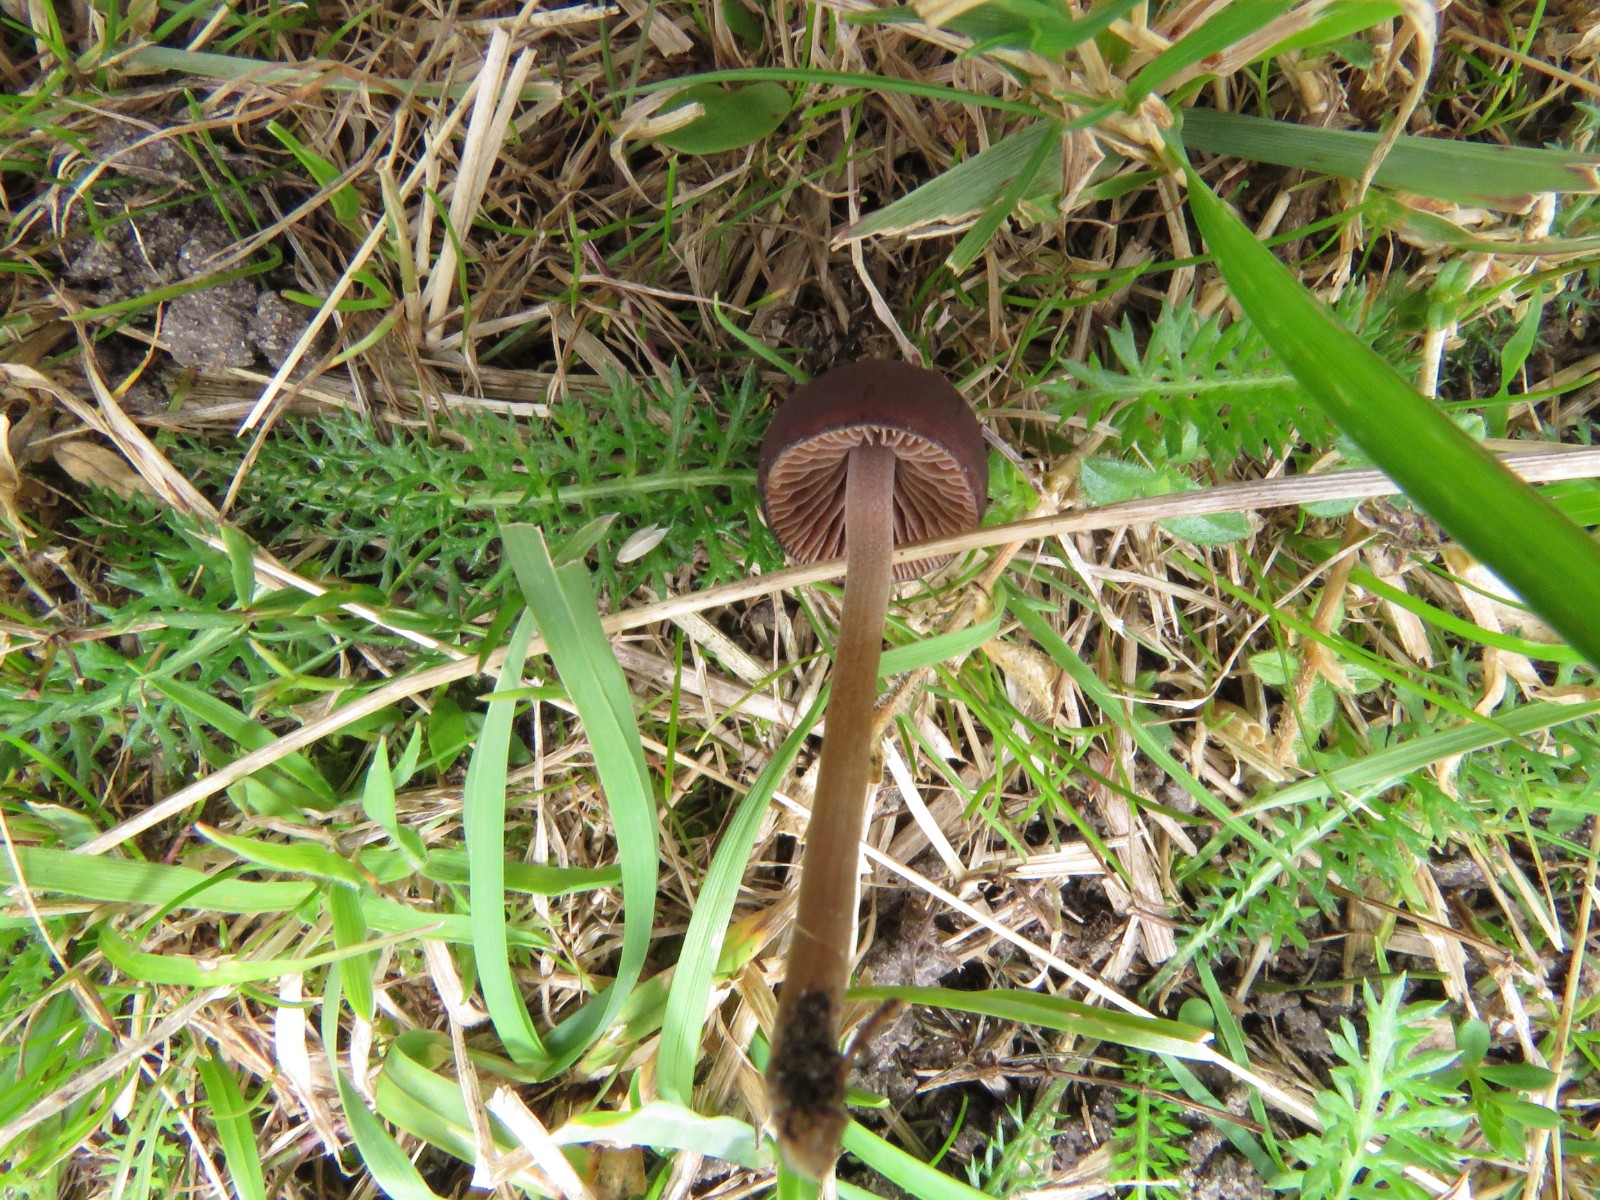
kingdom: Fungi
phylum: Basidiomycota
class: Agaricomycetes
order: Agaricales
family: Bolbitiaceae
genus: Panaeolina
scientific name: Panaeolina foenisecii
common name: høslætsvamp
